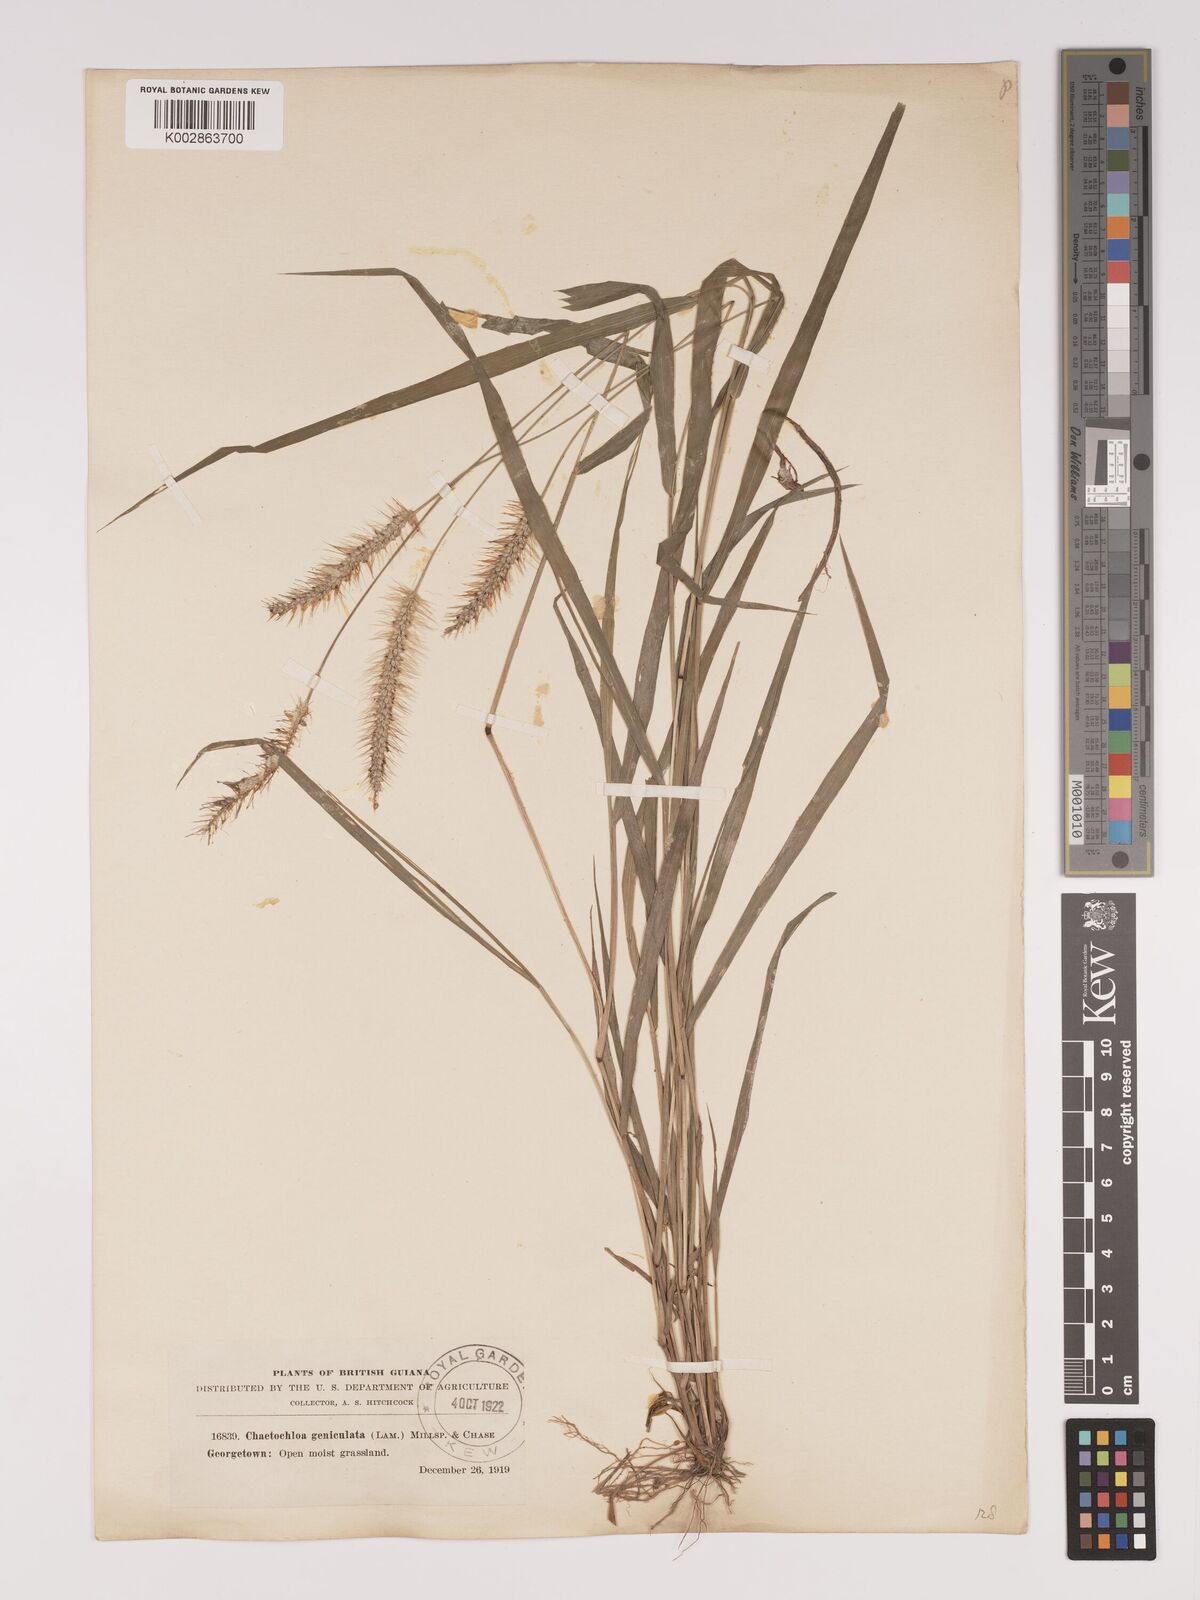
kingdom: Plantae
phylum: Tracheophyta
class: Liliopsida
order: Poales
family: Poaceae
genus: Setaria
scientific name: Setaria parviflora
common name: Knotroot bristle-grass
